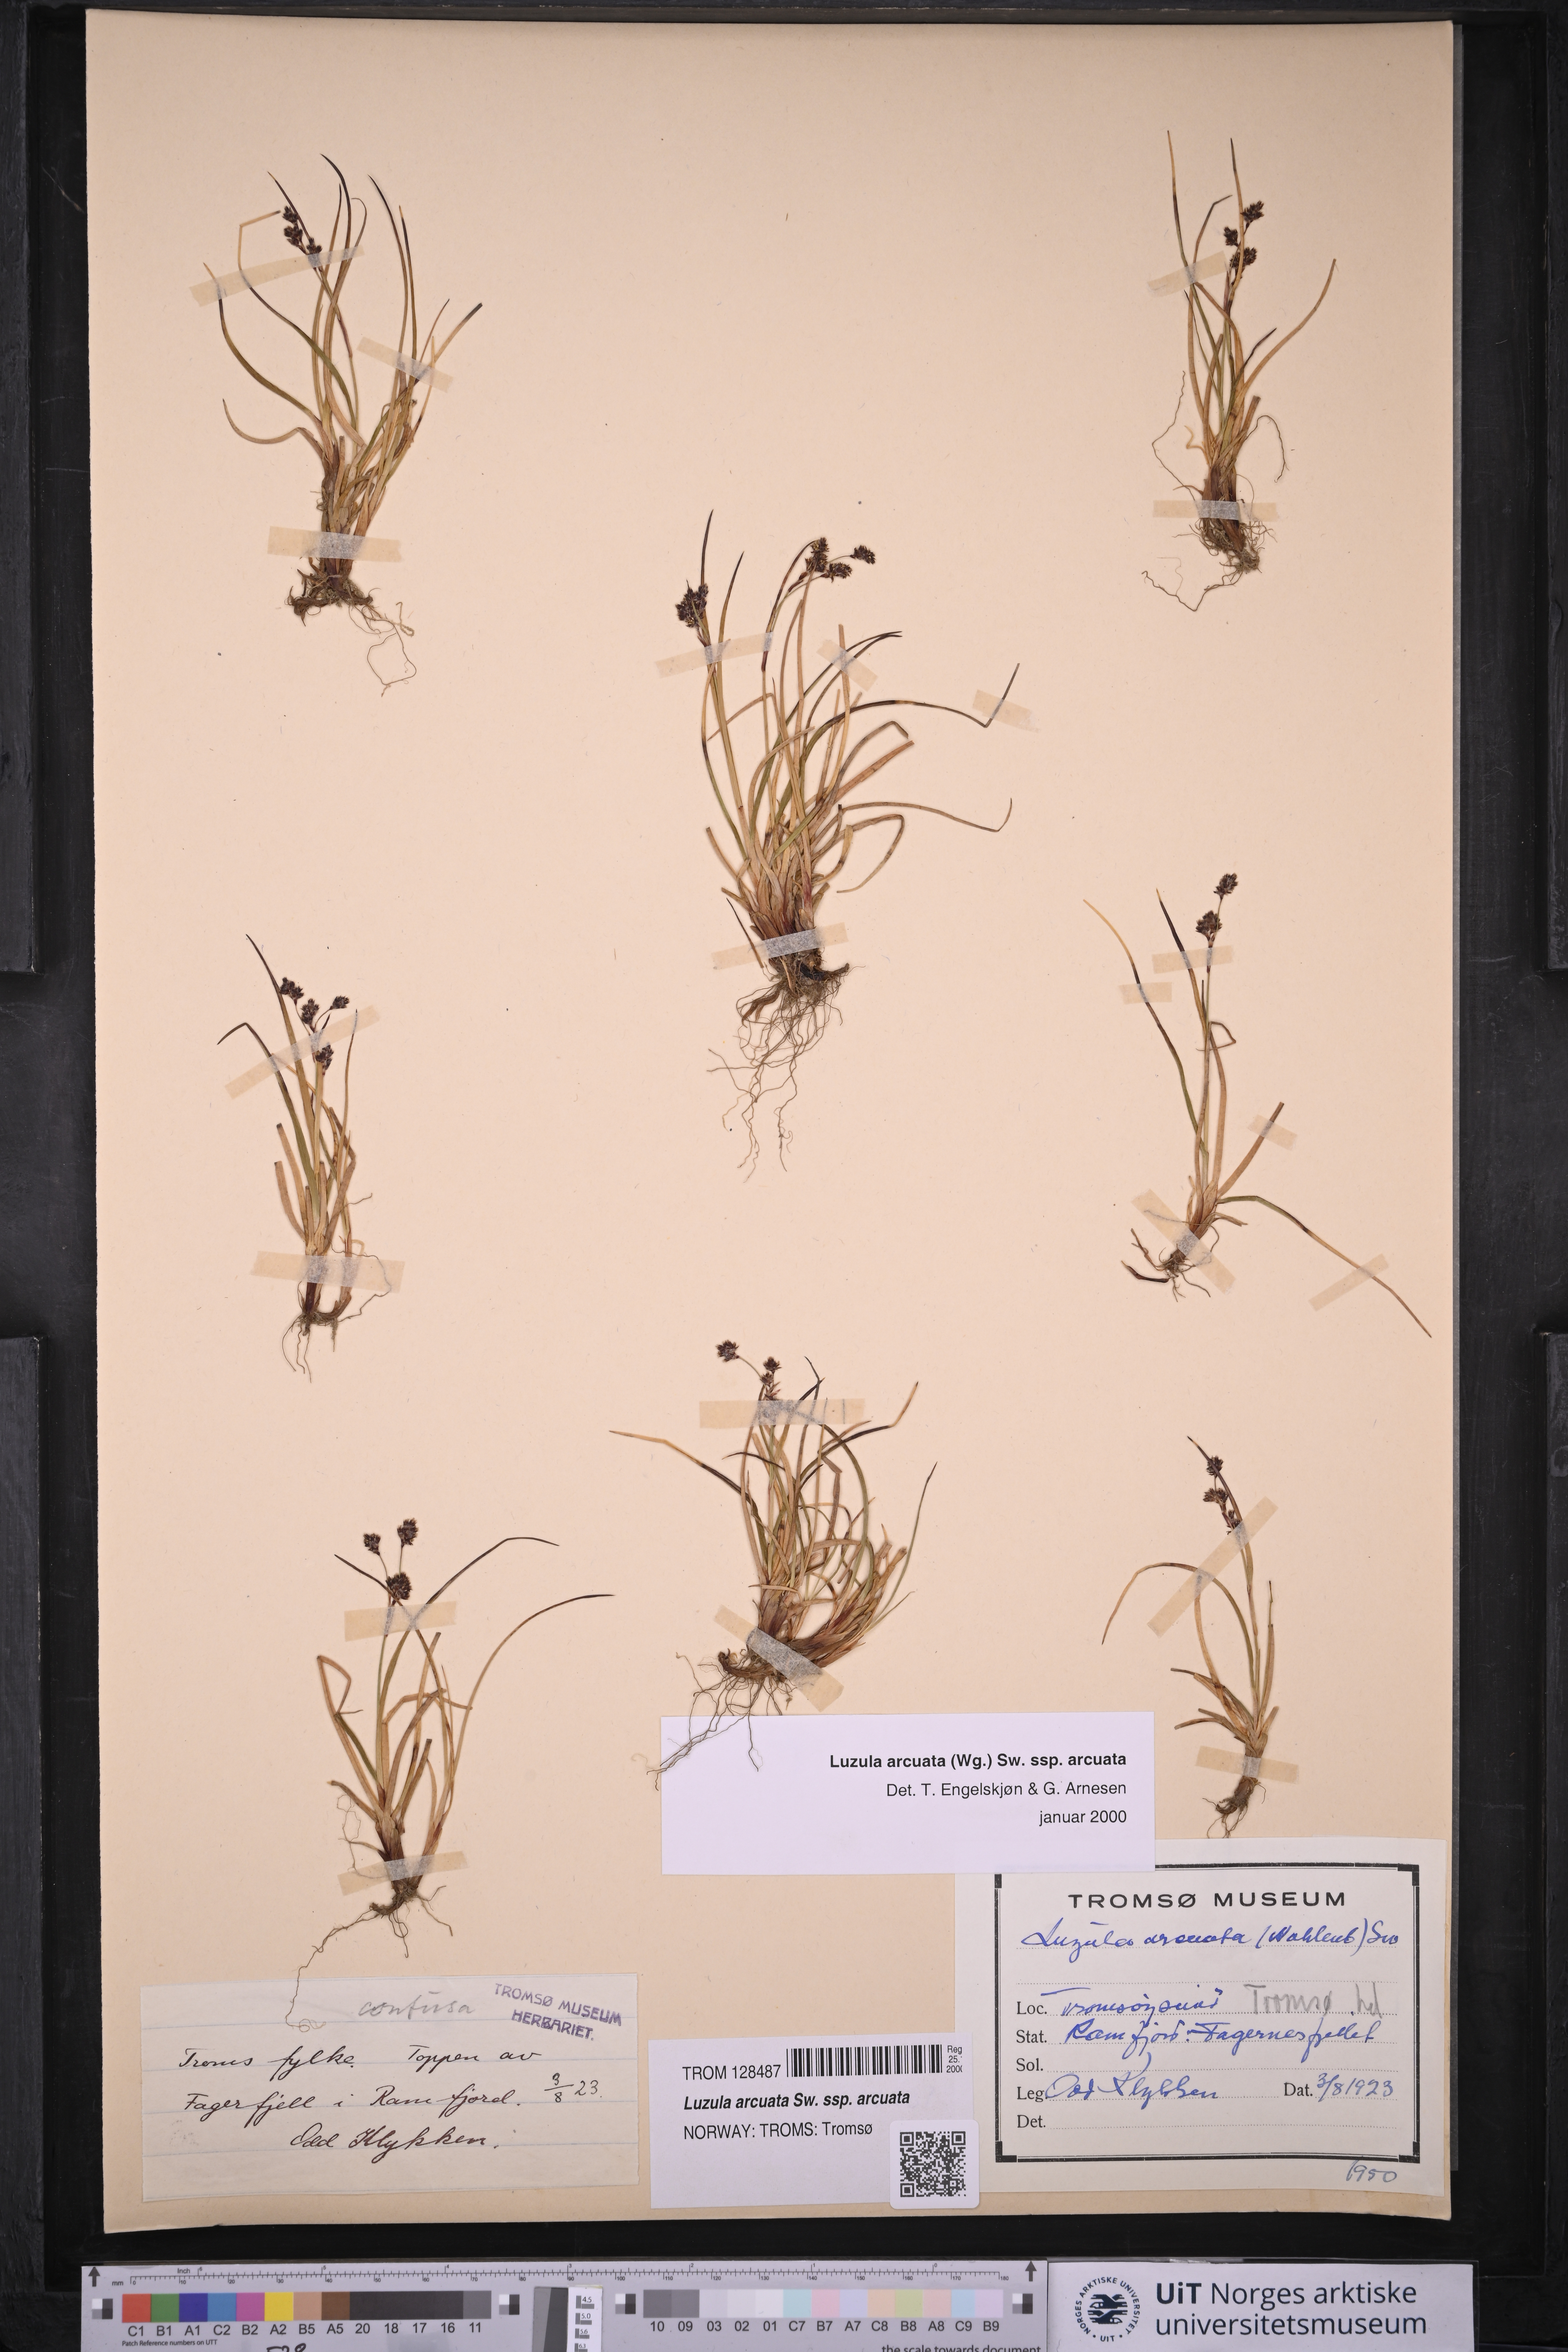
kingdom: Plantae
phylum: Tracheophyta
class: Liliopsida
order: Poales
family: Juncaceae
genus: Luzula
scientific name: Luzula arcuata
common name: Curved wood-rush
